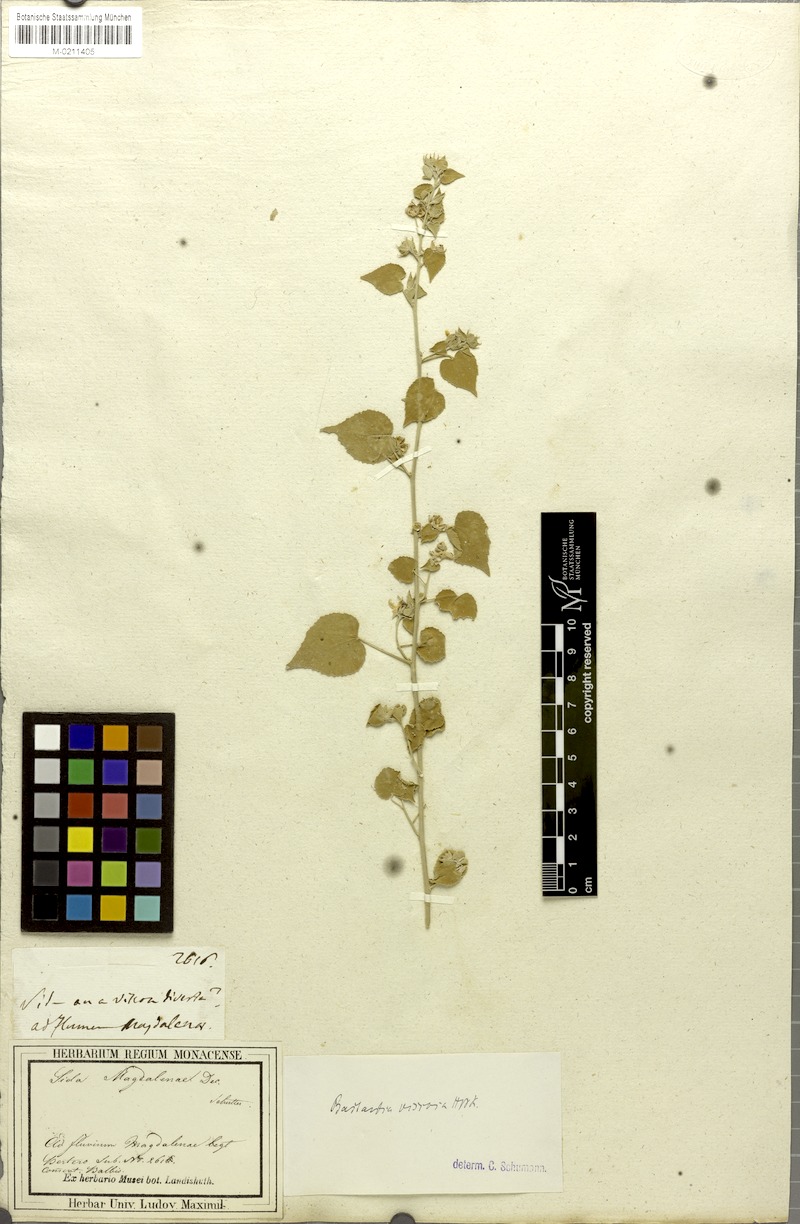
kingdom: Plantae
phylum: Tracheophyta
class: Magnoliopsida
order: Malvales
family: Malvaceae
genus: Abutilon
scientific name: Abutilon viscosum
